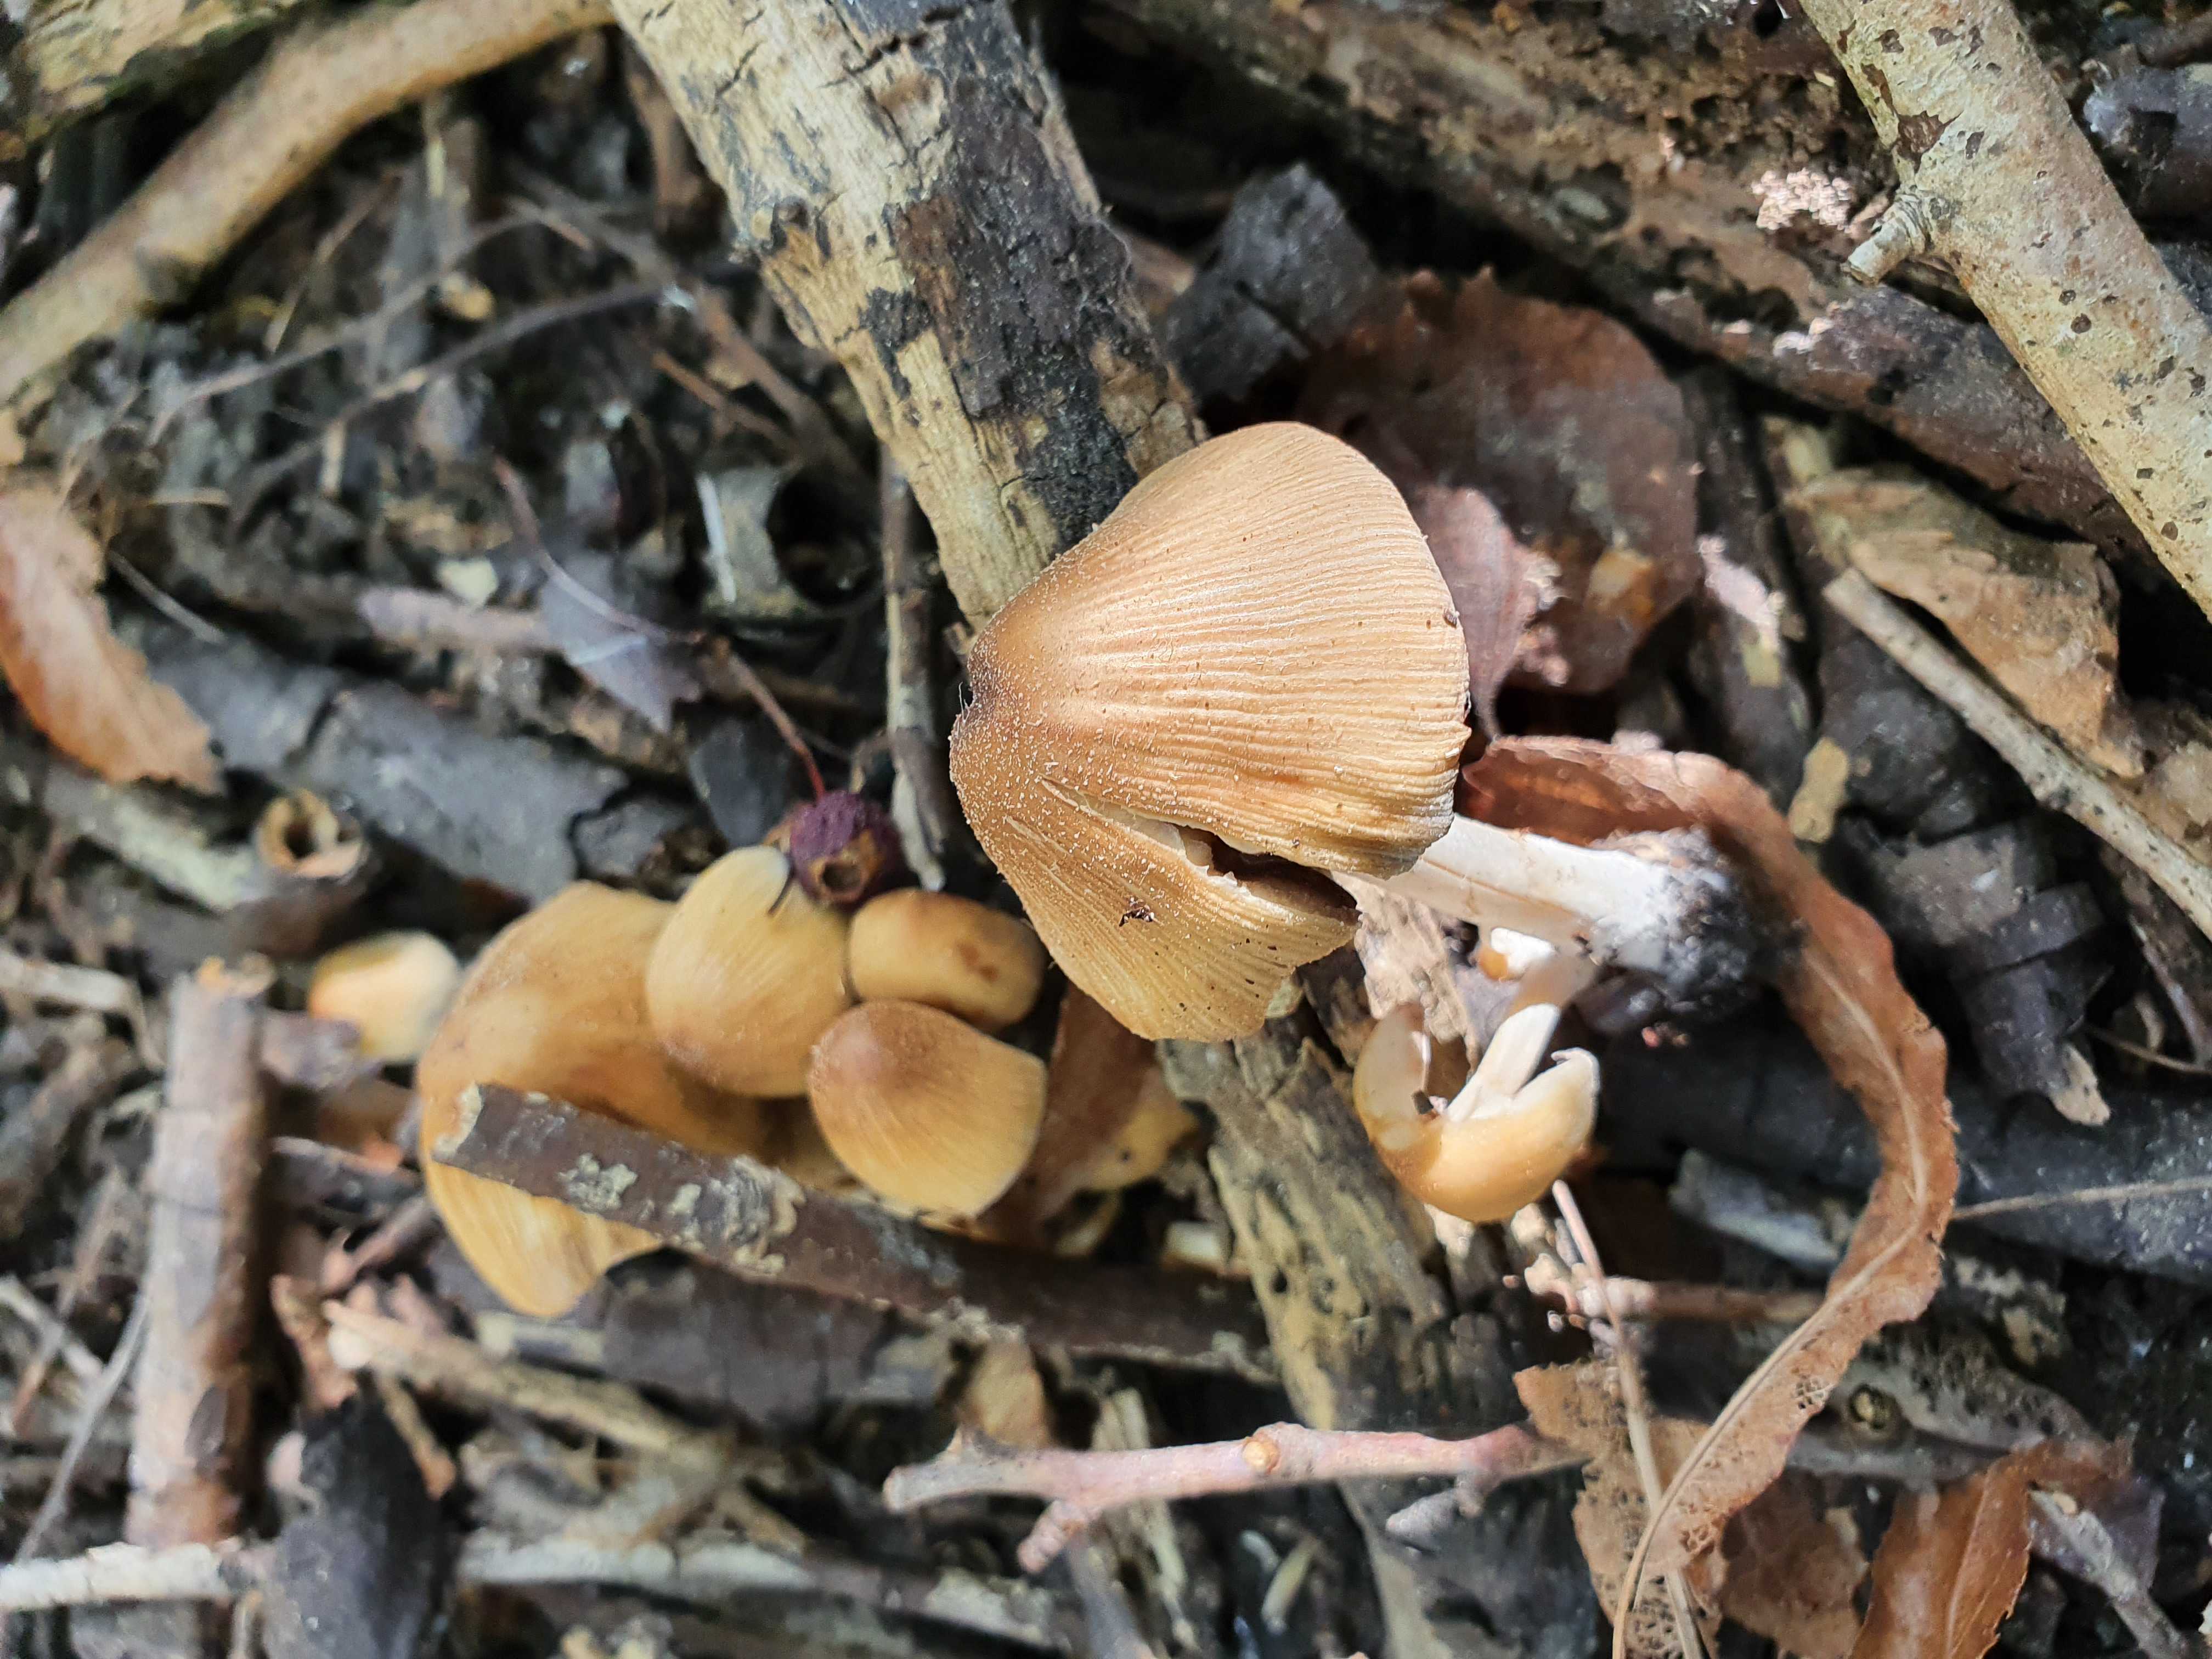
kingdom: Fungi
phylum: Basidiomycota
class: Agaricomycetes
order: Agaricales
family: Psathyrellaceae
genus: Coprinellus
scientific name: Coprinellus micaceus
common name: glimmer-blækhat
